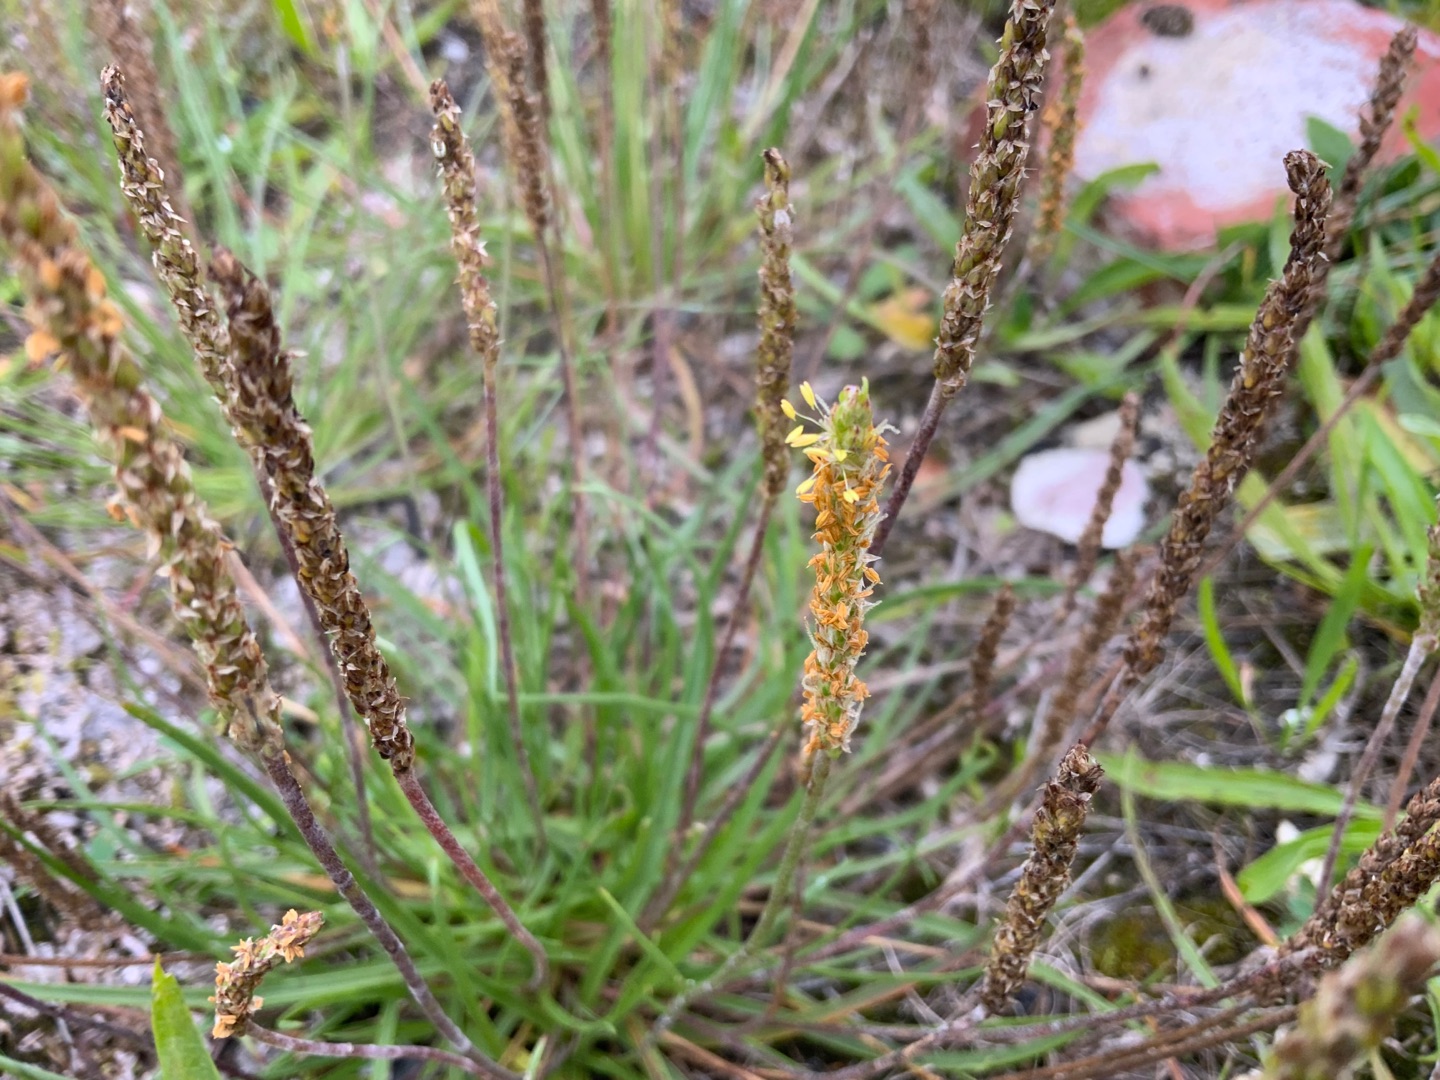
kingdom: Plantae
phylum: Tracheophyta
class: Magnoliopsida
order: Lamiales
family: Plantaginaceae
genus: Plantago
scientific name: Plantago maritima
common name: Strand-vejbred
